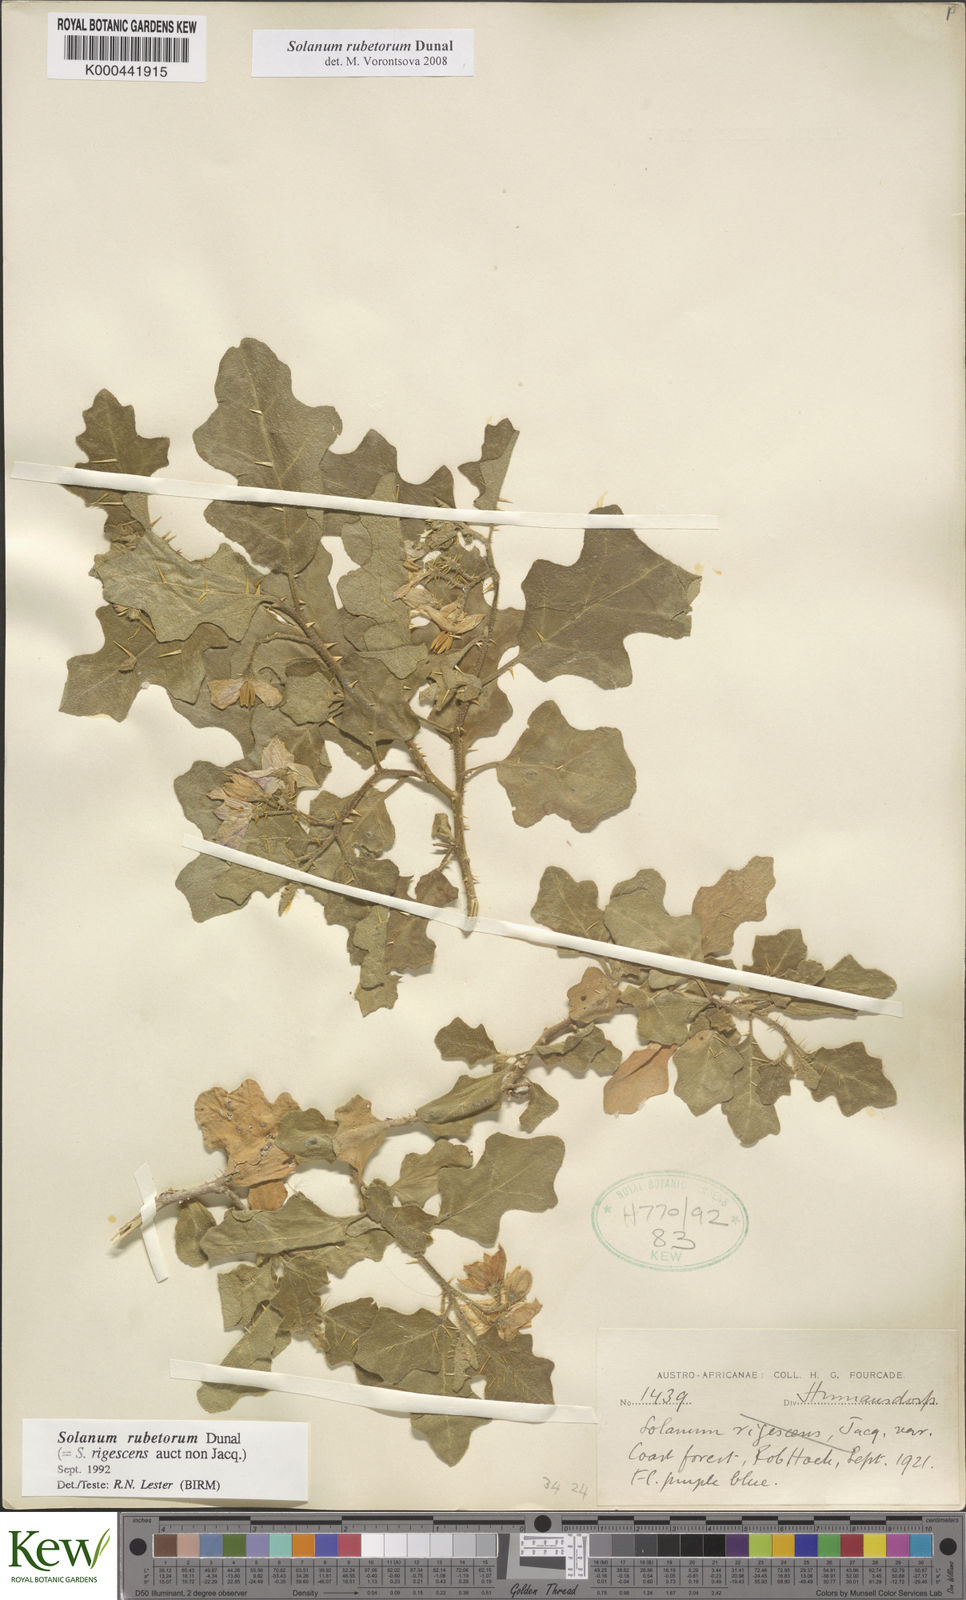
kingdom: Plantae
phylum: Tracheophyta
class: Magnoliopsida
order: Solanales
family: Solanaceae
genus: Solanum
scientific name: Solanum rubetorum
